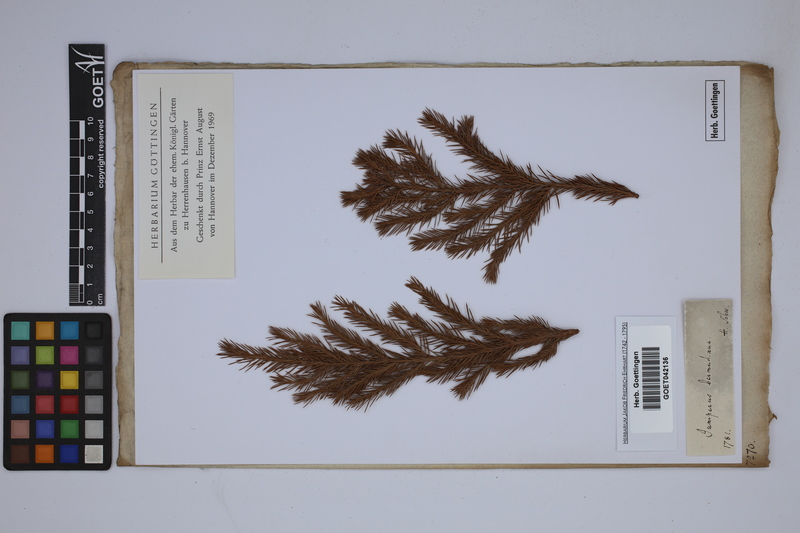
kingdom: Plantae
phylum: Tracheophyta
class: Pinopsida
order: Pinales
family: Cupressaceae
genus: Juniperus
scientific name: Juniperus bermudiana
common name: Bermuda juniper
